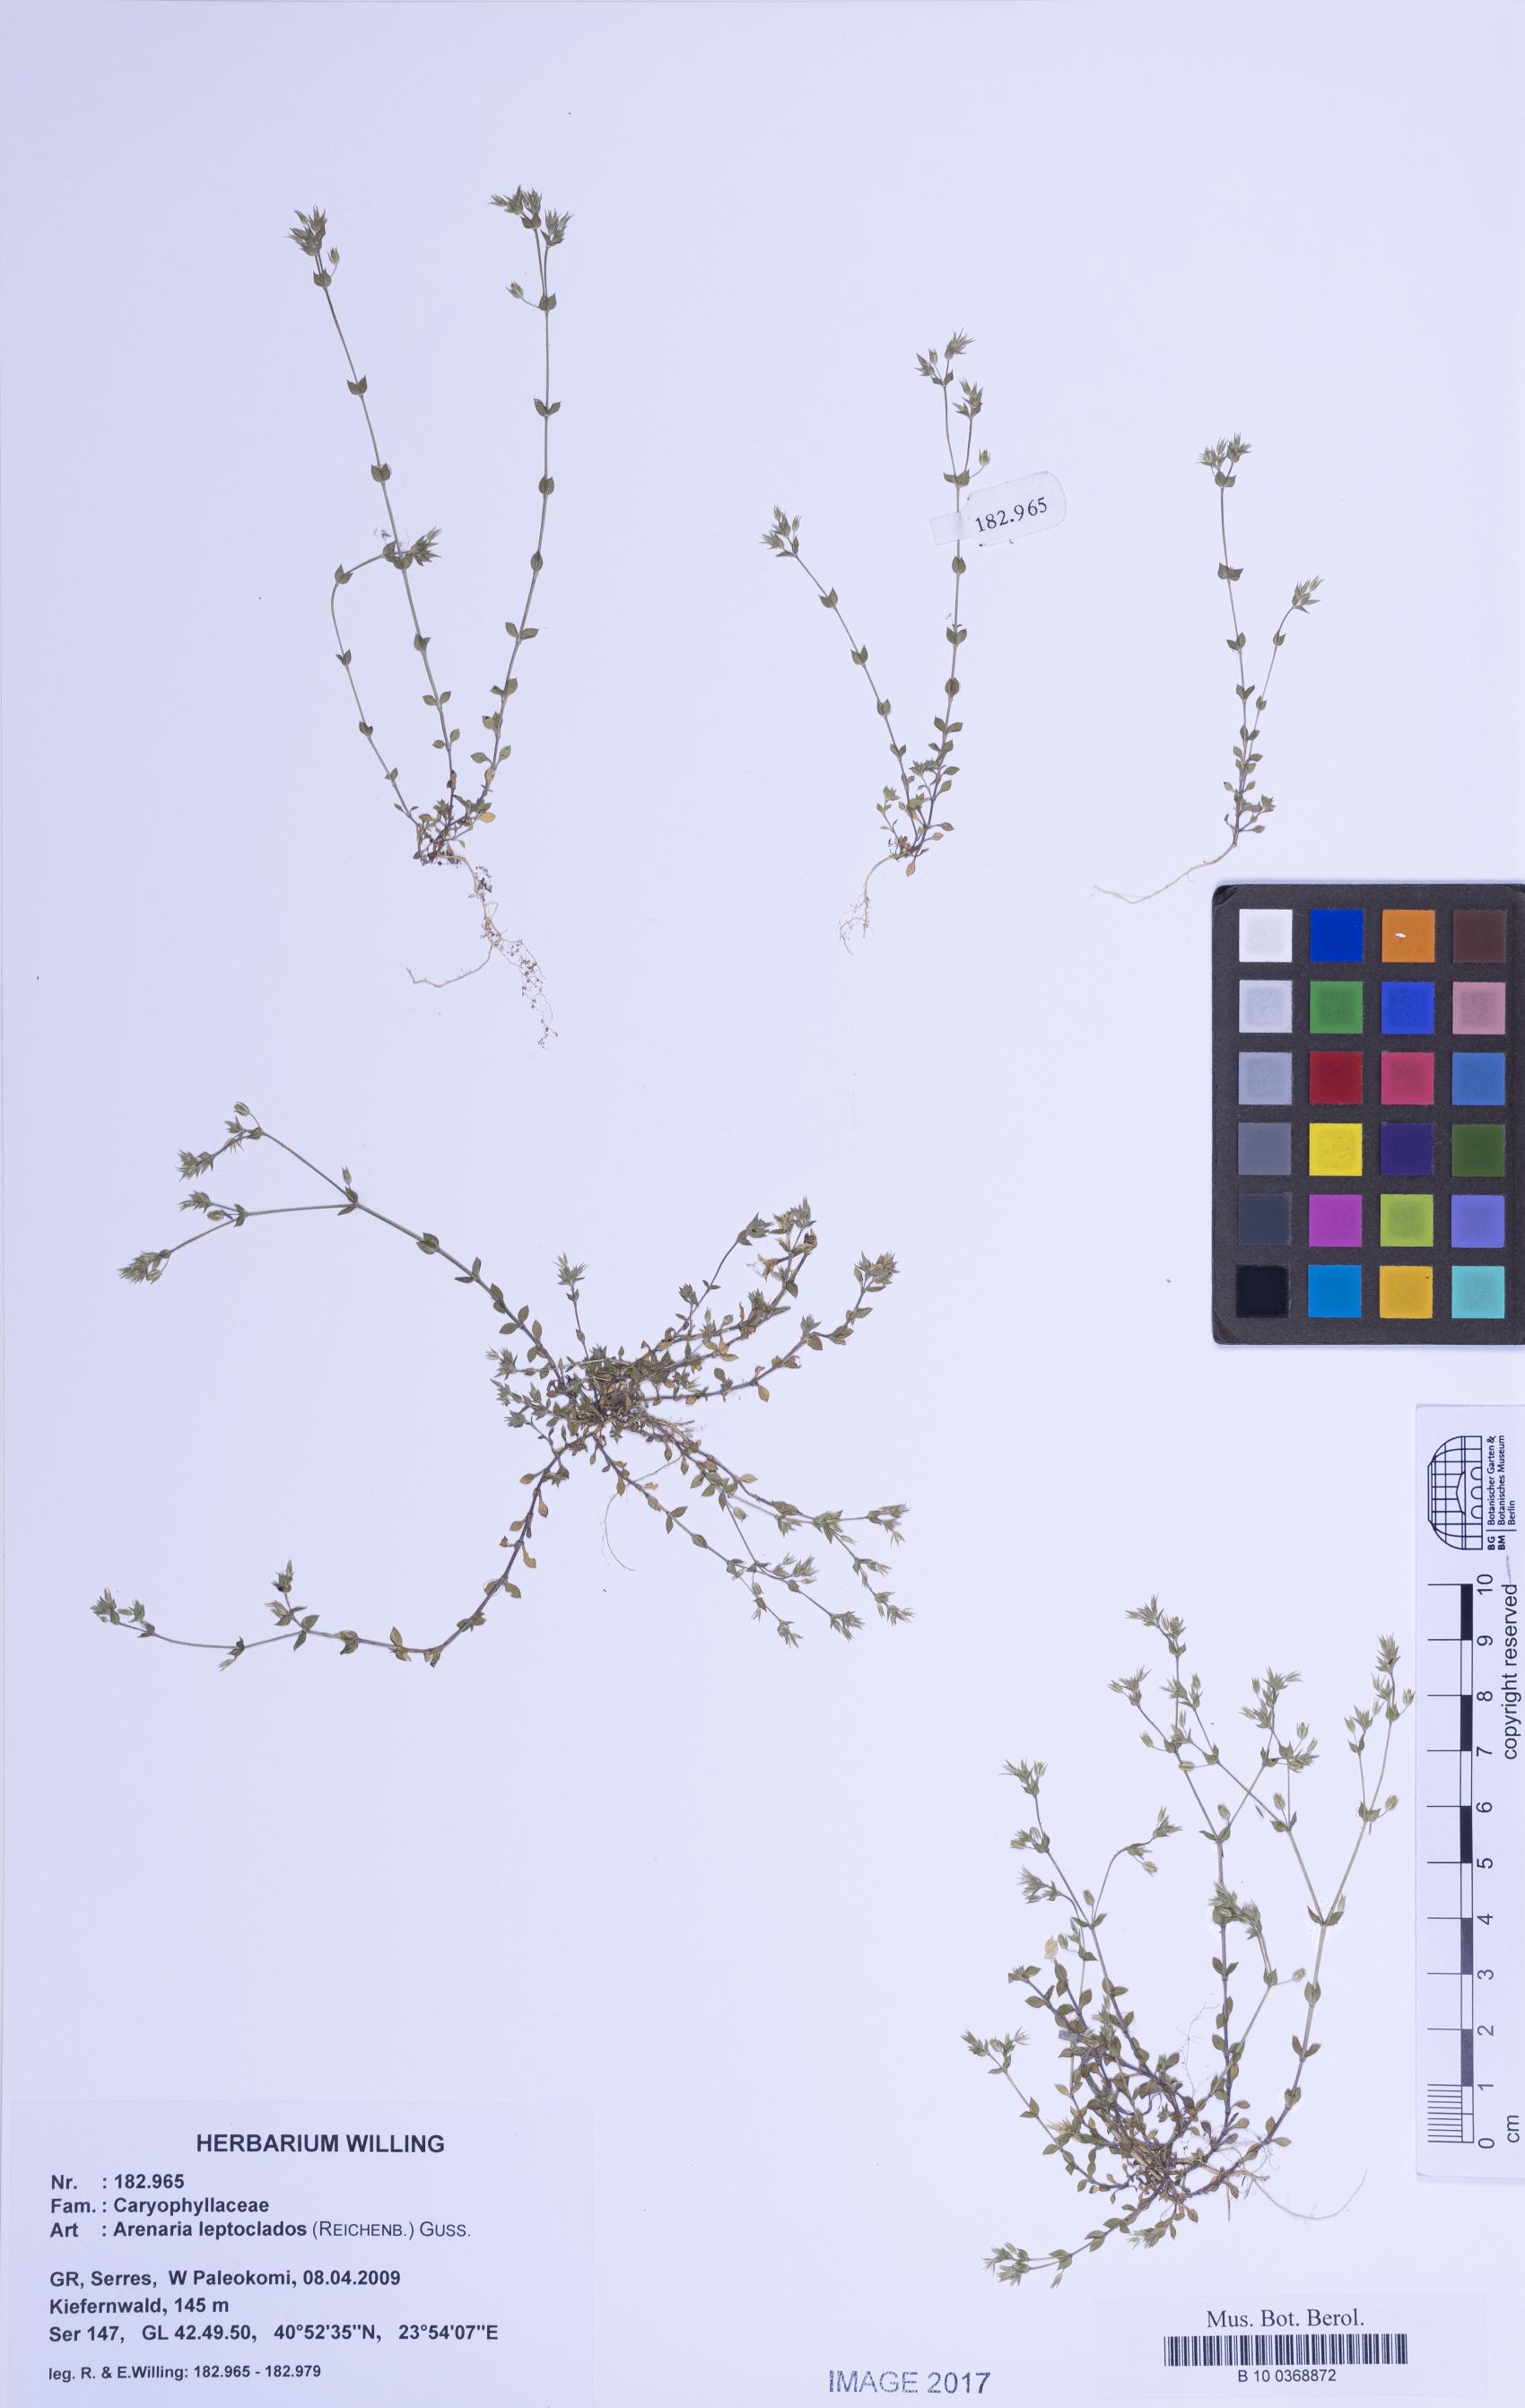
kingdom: Plantae
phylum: Tracheophyta
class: Magnoliopsida
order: Caryophyllales
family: Caryophyllaceae
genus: Arenaria
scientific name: Arenaria leptoclados
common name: Thyme-leaved sandwort
